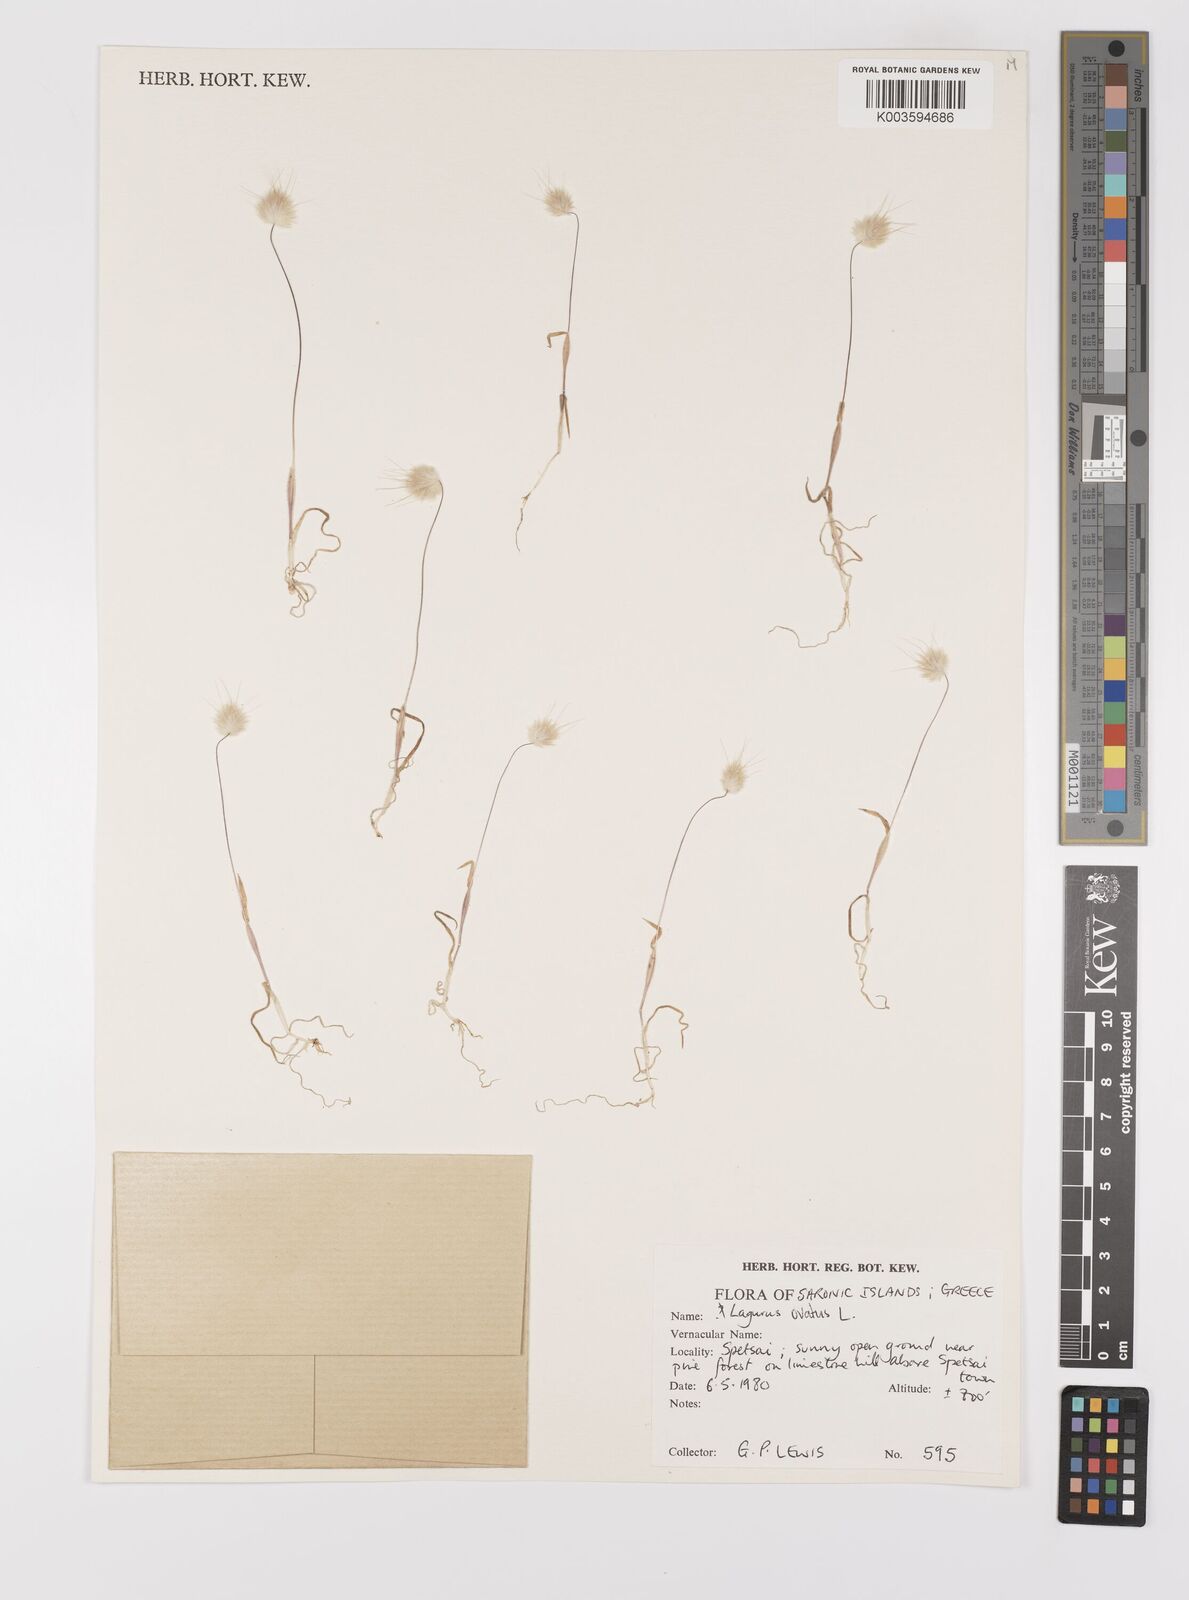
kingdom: Plantae
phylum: Tracheophyta
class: Liliopsida
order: Poales
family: Poaceae
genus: Lagurus
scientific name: Lagurus ovatus
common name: Hare's-tail
